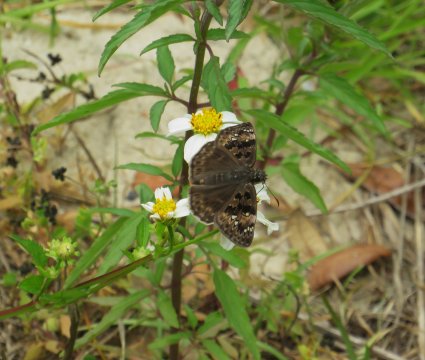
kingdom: Animalia
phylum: Arthropoda
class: Insecta
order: Lepidoptera
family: Hesperiidae
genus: Gesta
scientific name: Gesta
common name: Horace's Duskywing
